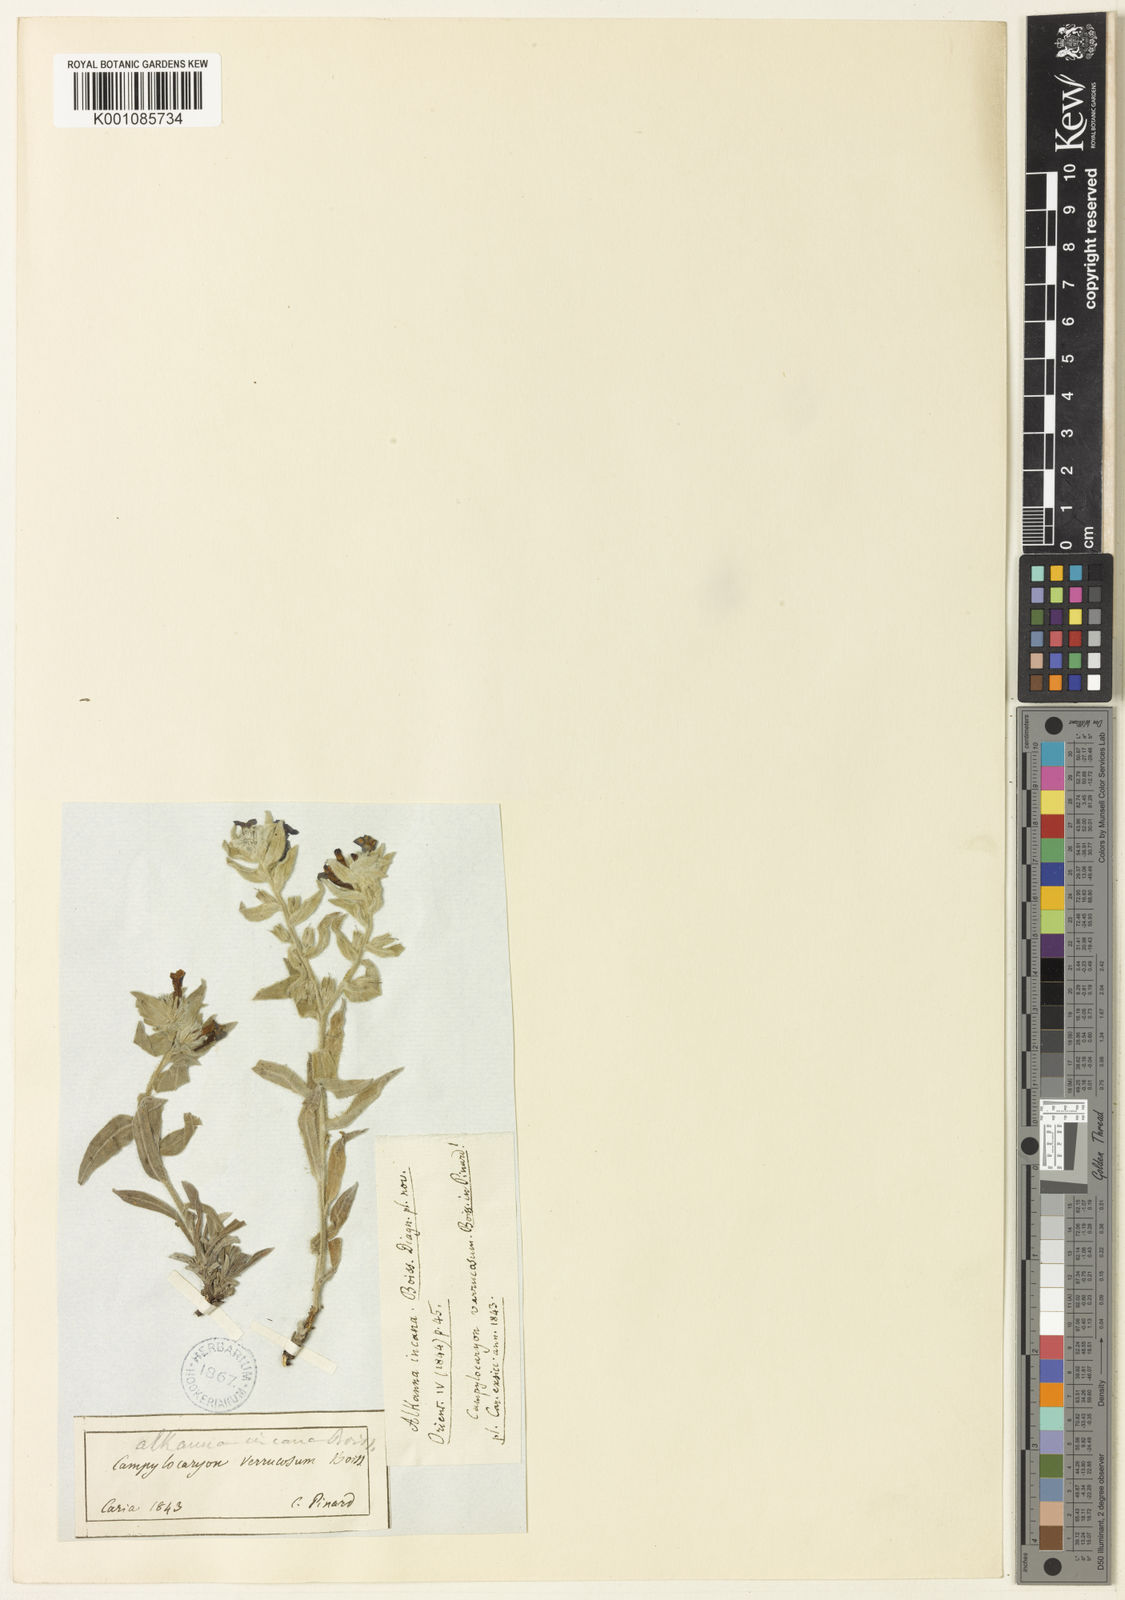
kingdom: Plantae
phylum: Tracheophyta
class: Magnoliopsida
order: Boraginales
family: Boraginaceae
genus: Alkanna
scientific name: Alkanna incana
